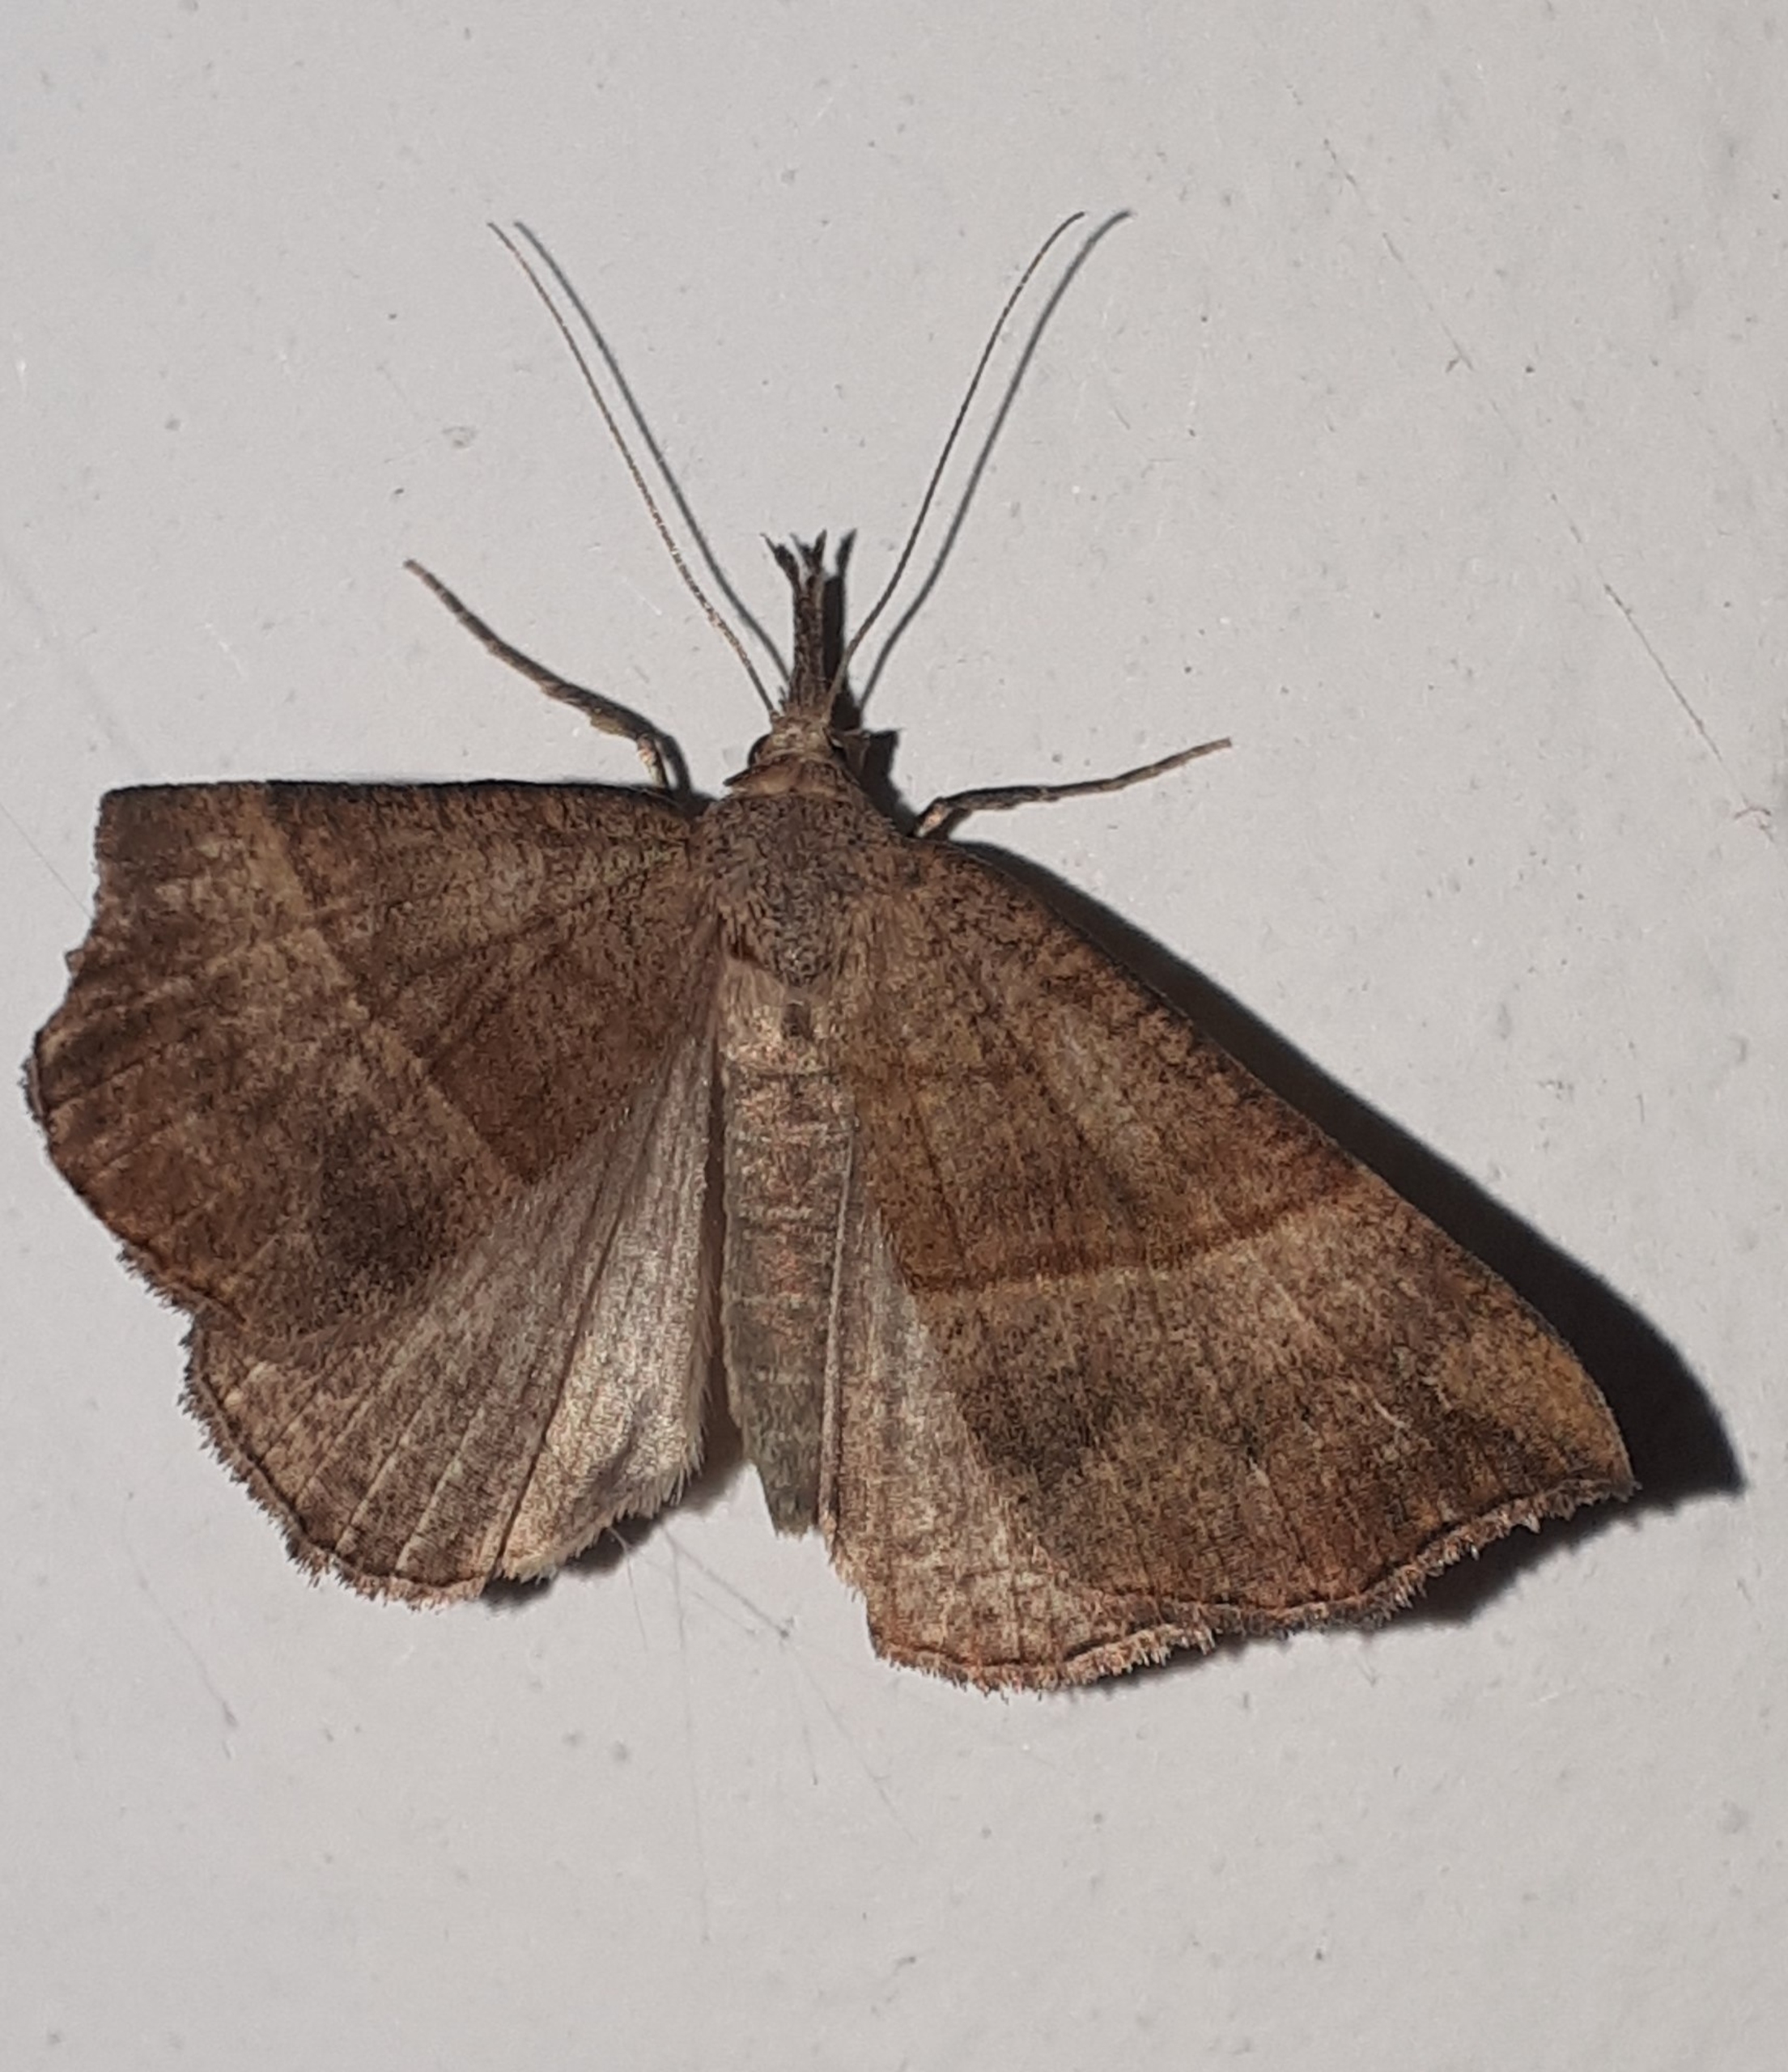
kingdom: Animalia
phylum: Arthropoda
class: Insecta
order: Lepidoptera
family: Erebidae
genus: Hypena
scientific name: Hypena proboscidalis
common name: Snudeugle
